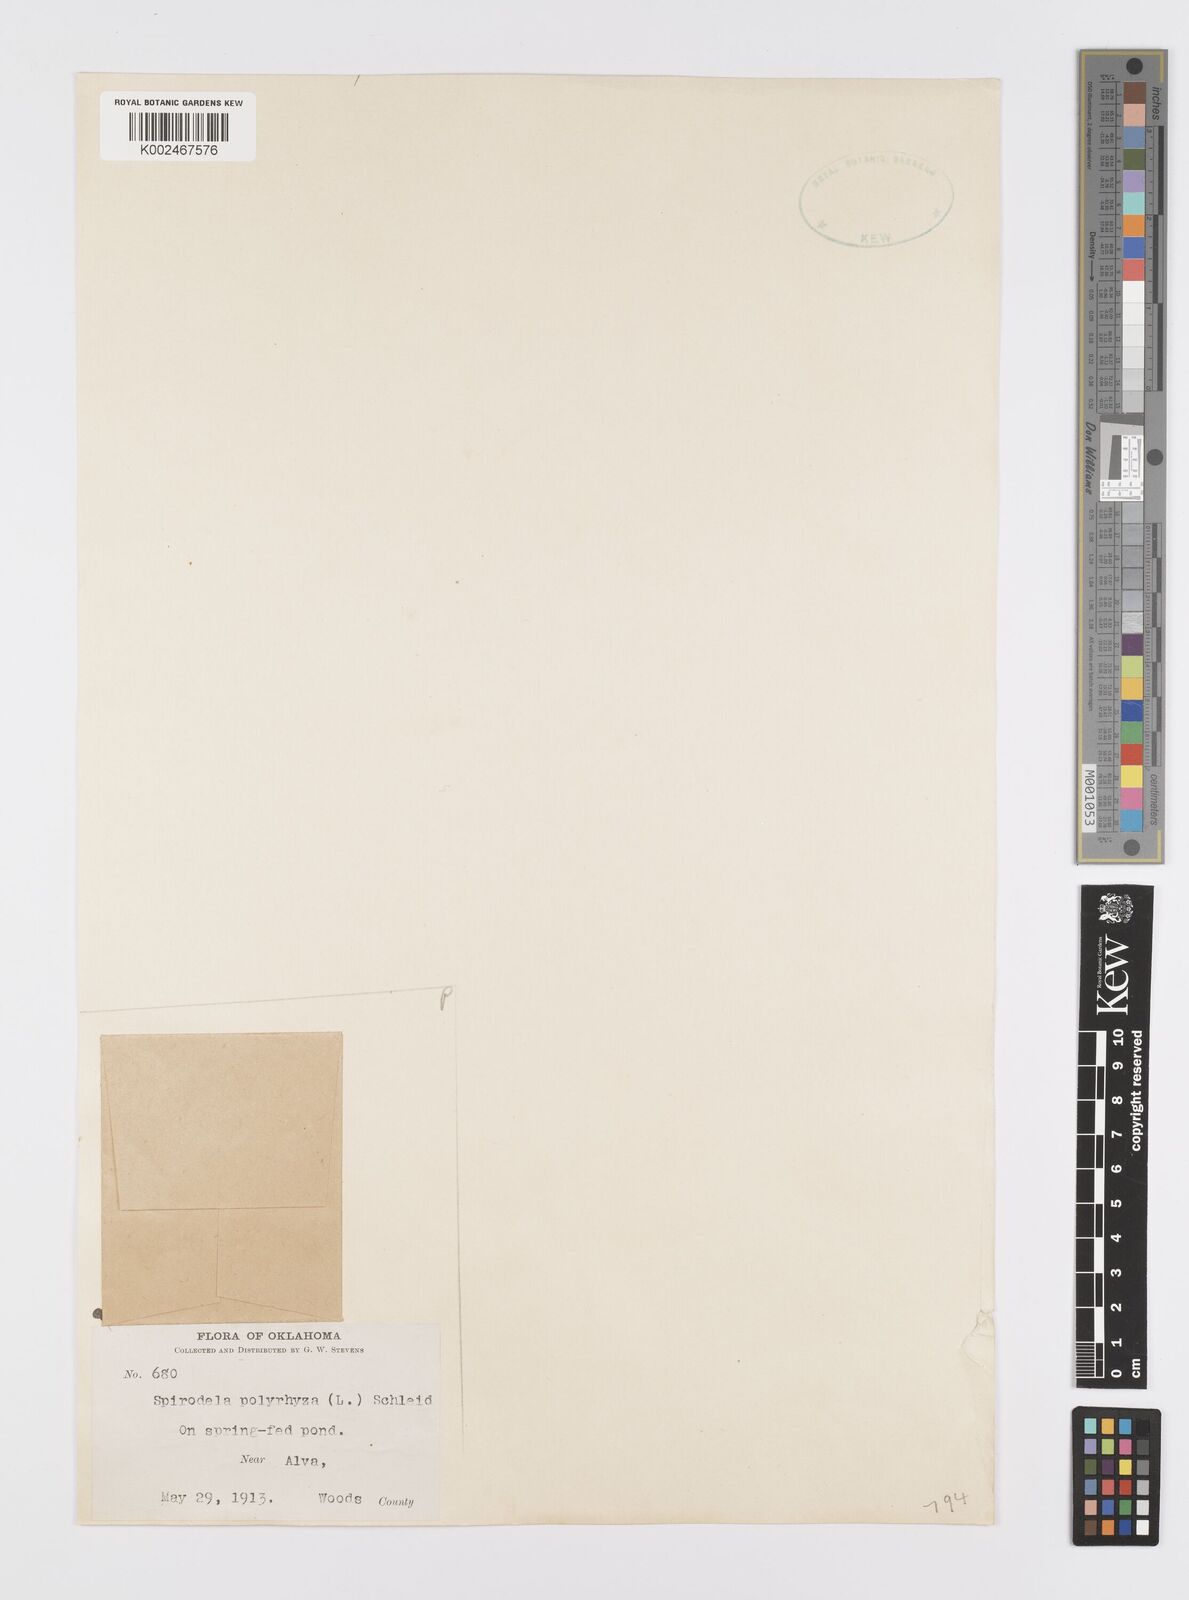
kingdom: Plantae
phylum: Tracheophyta
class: Liliopsida
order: Alismatales
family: Araceae
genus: Spirodela
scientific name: Spirodela polyrhiza
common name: Great duckweed
